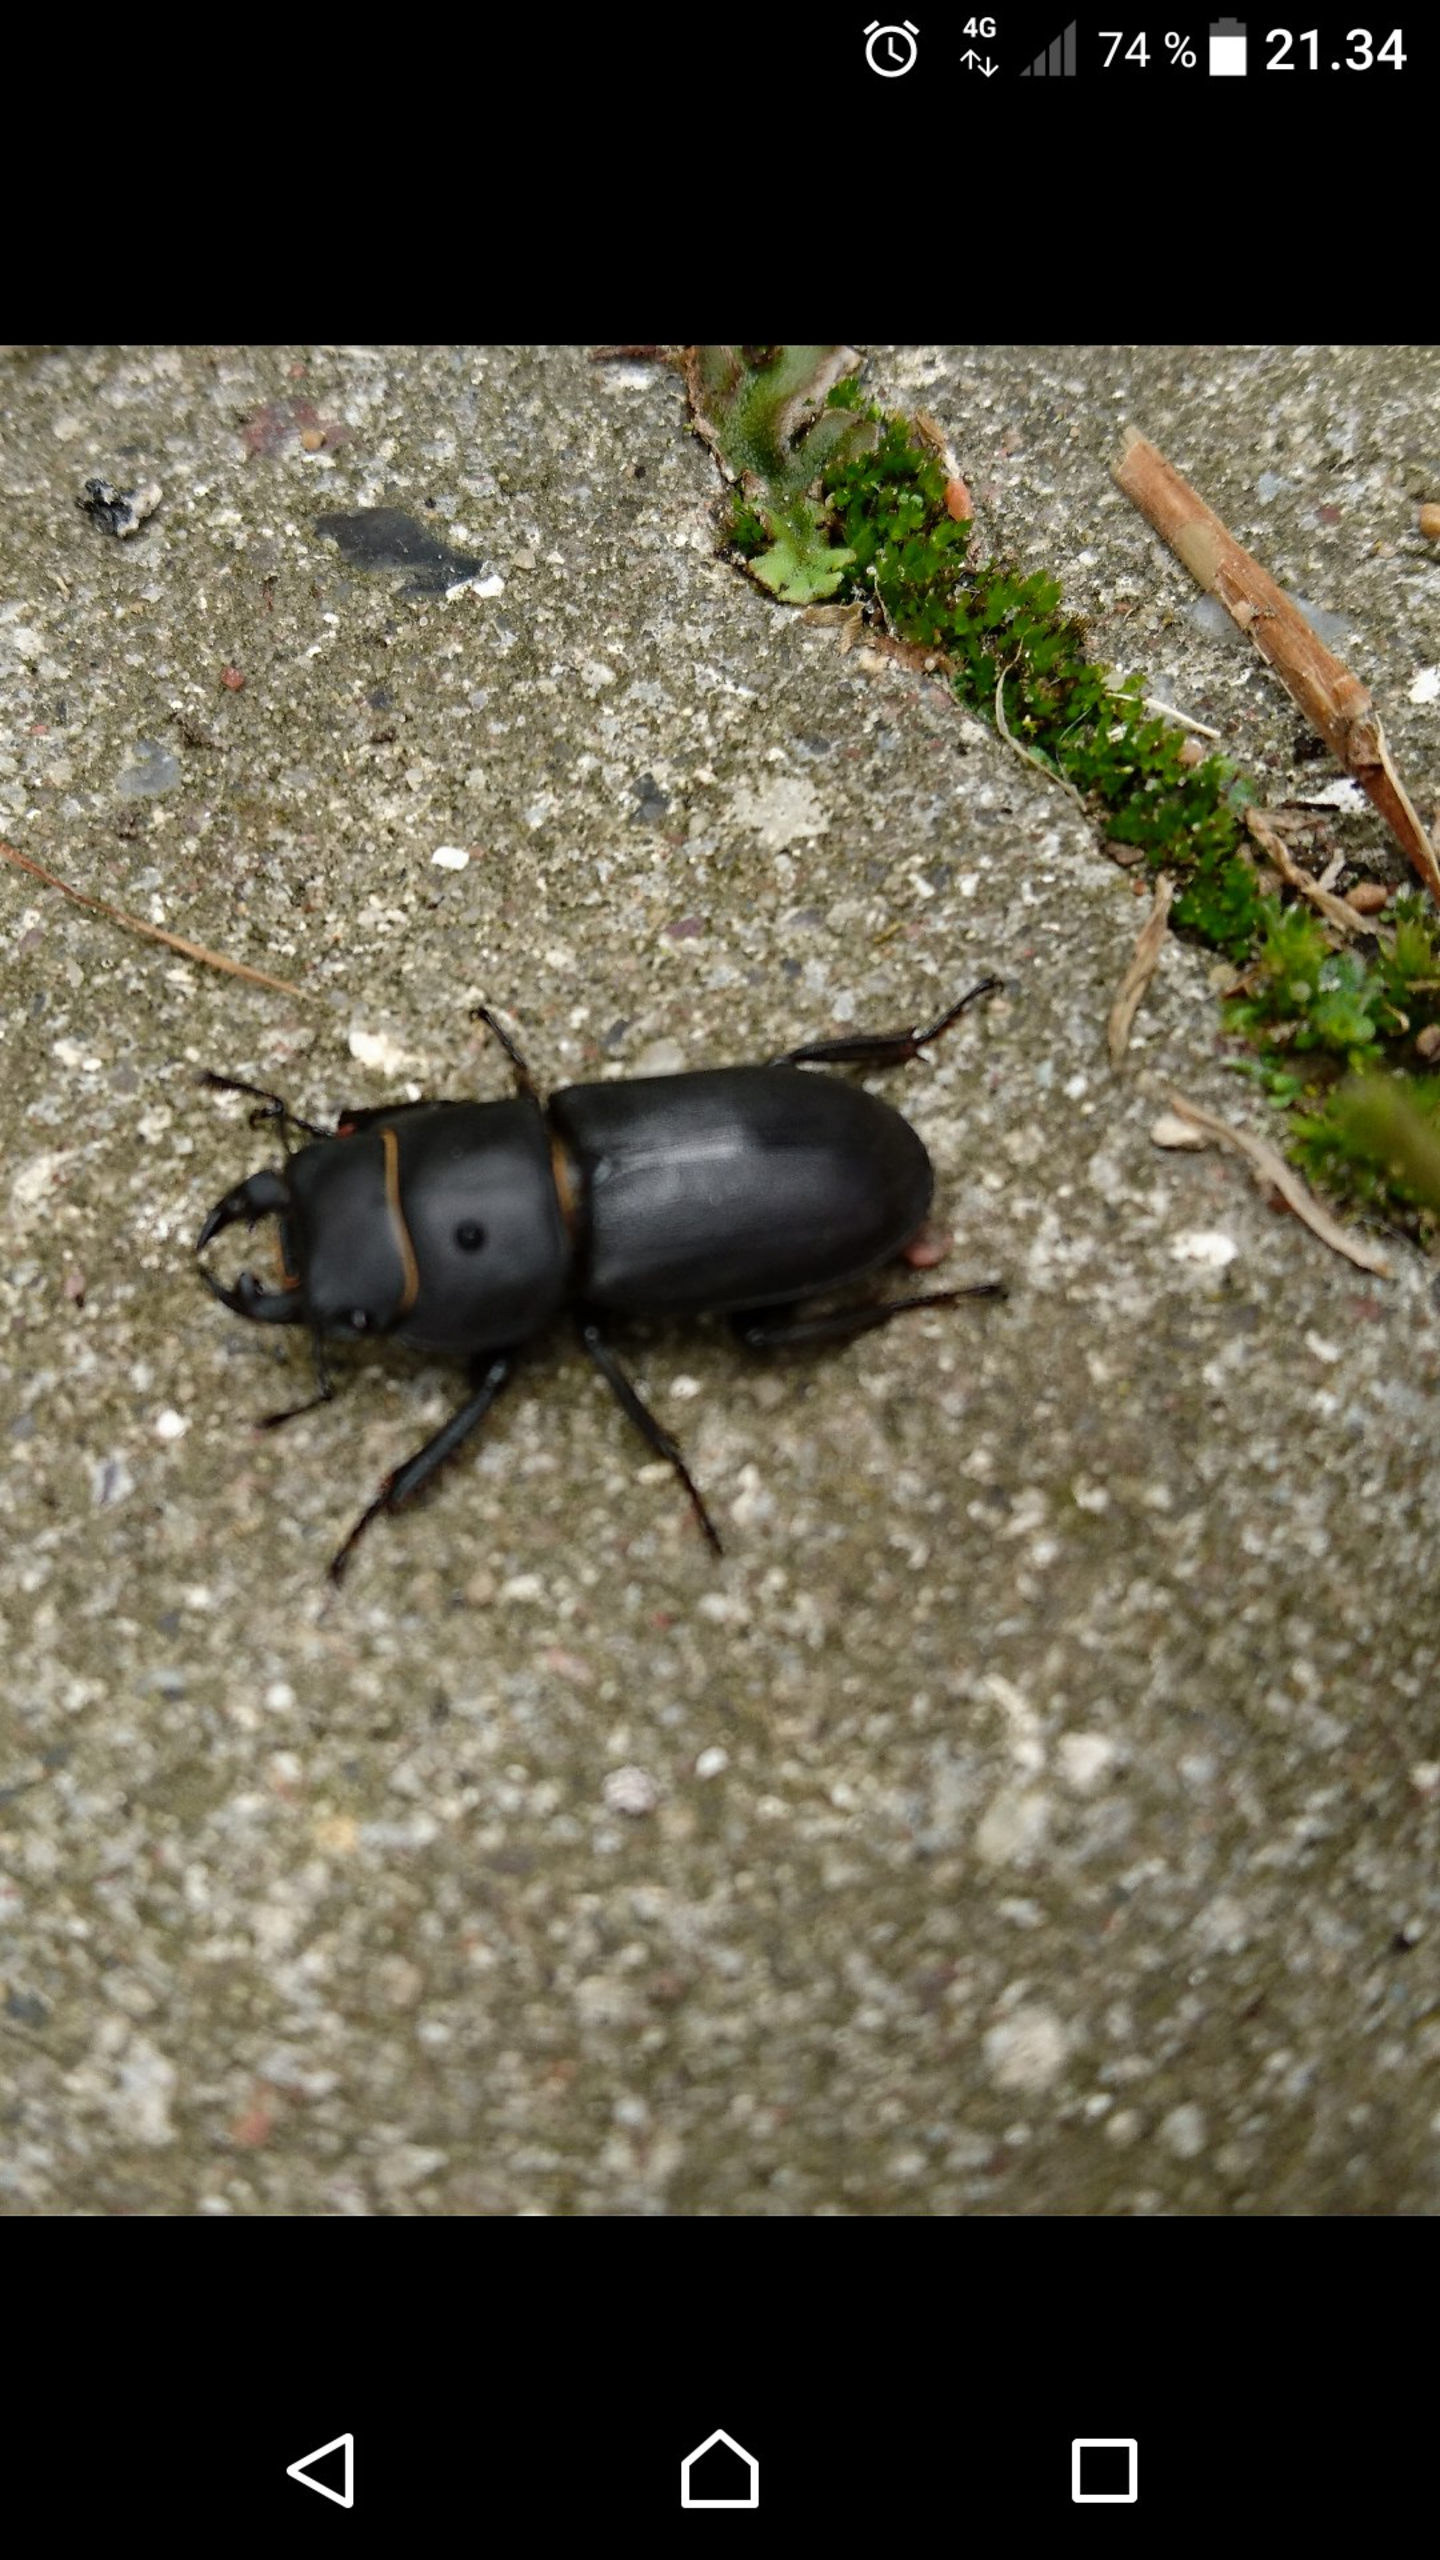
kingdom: Animalia
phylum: Arthropoda
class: Insecta
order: Coleoptera
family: Lucanidae
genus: Dorcus
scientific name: Dorcus parallelipipedus
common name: Bøghjort
